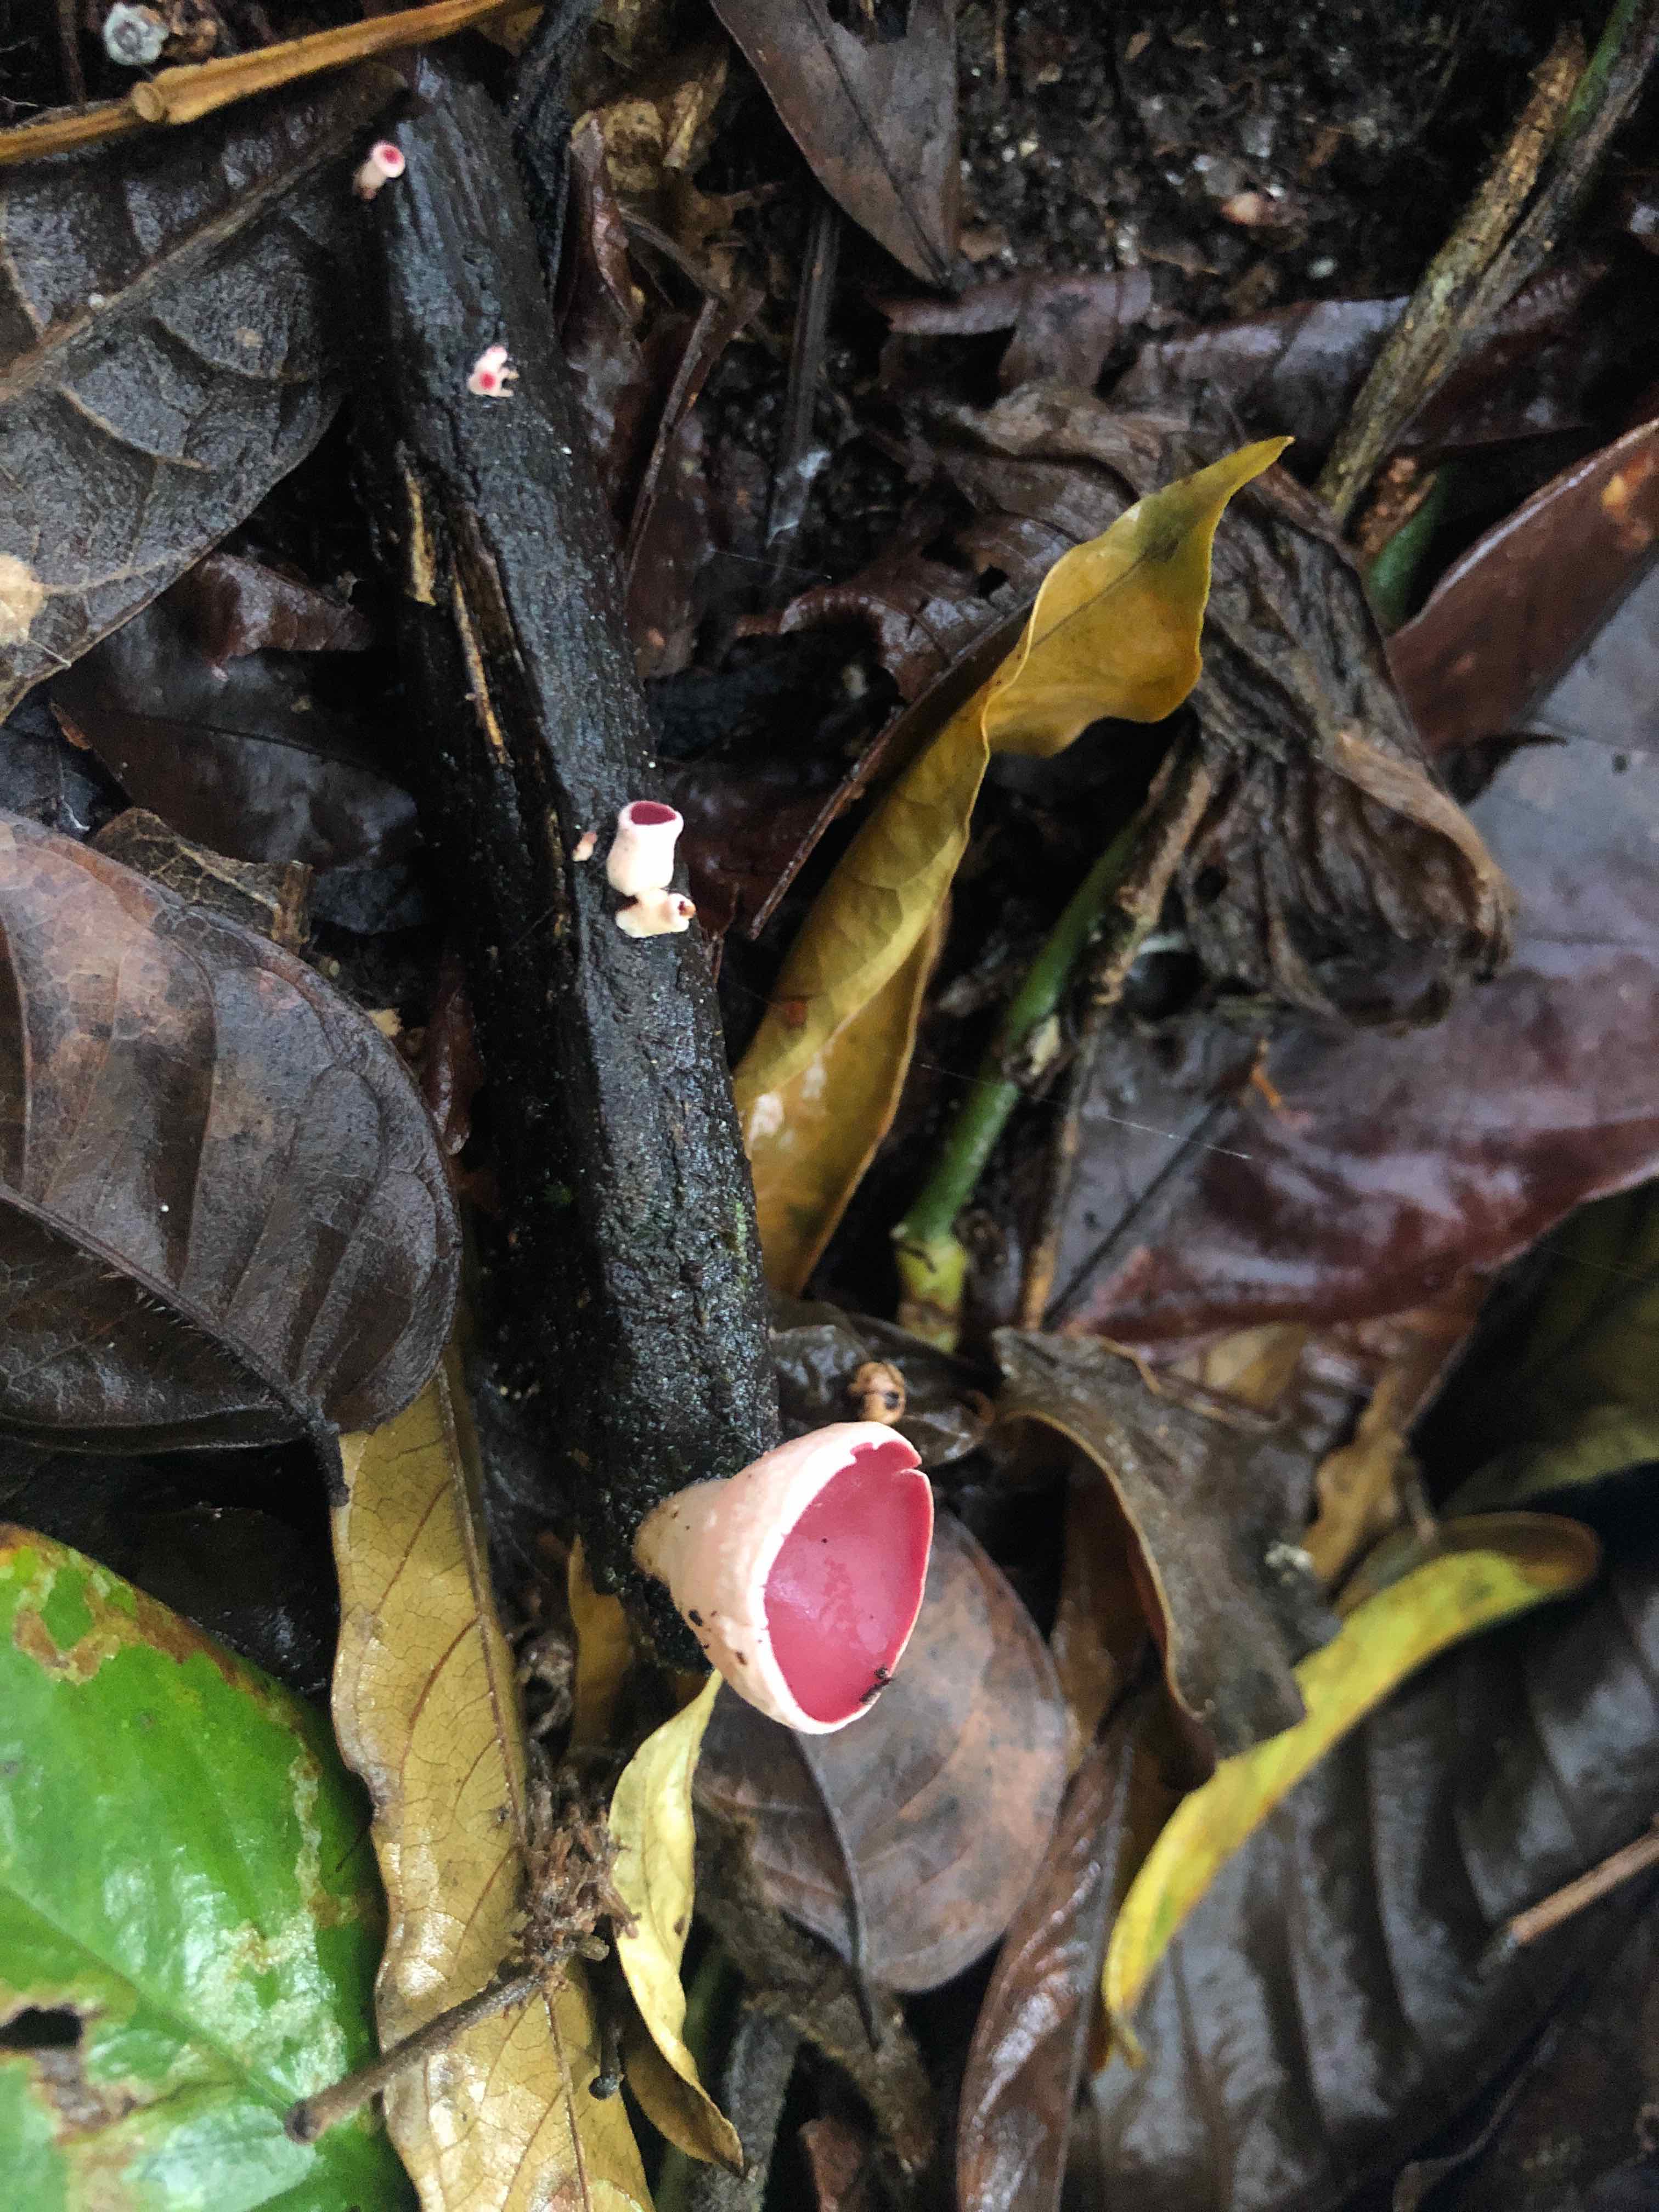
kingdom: Fungi
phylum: Ascomycota
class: Pezizomycetes
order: Pezizales
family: Sarcoscyphaceae
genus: Phillipsia
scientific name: Phillipsia
